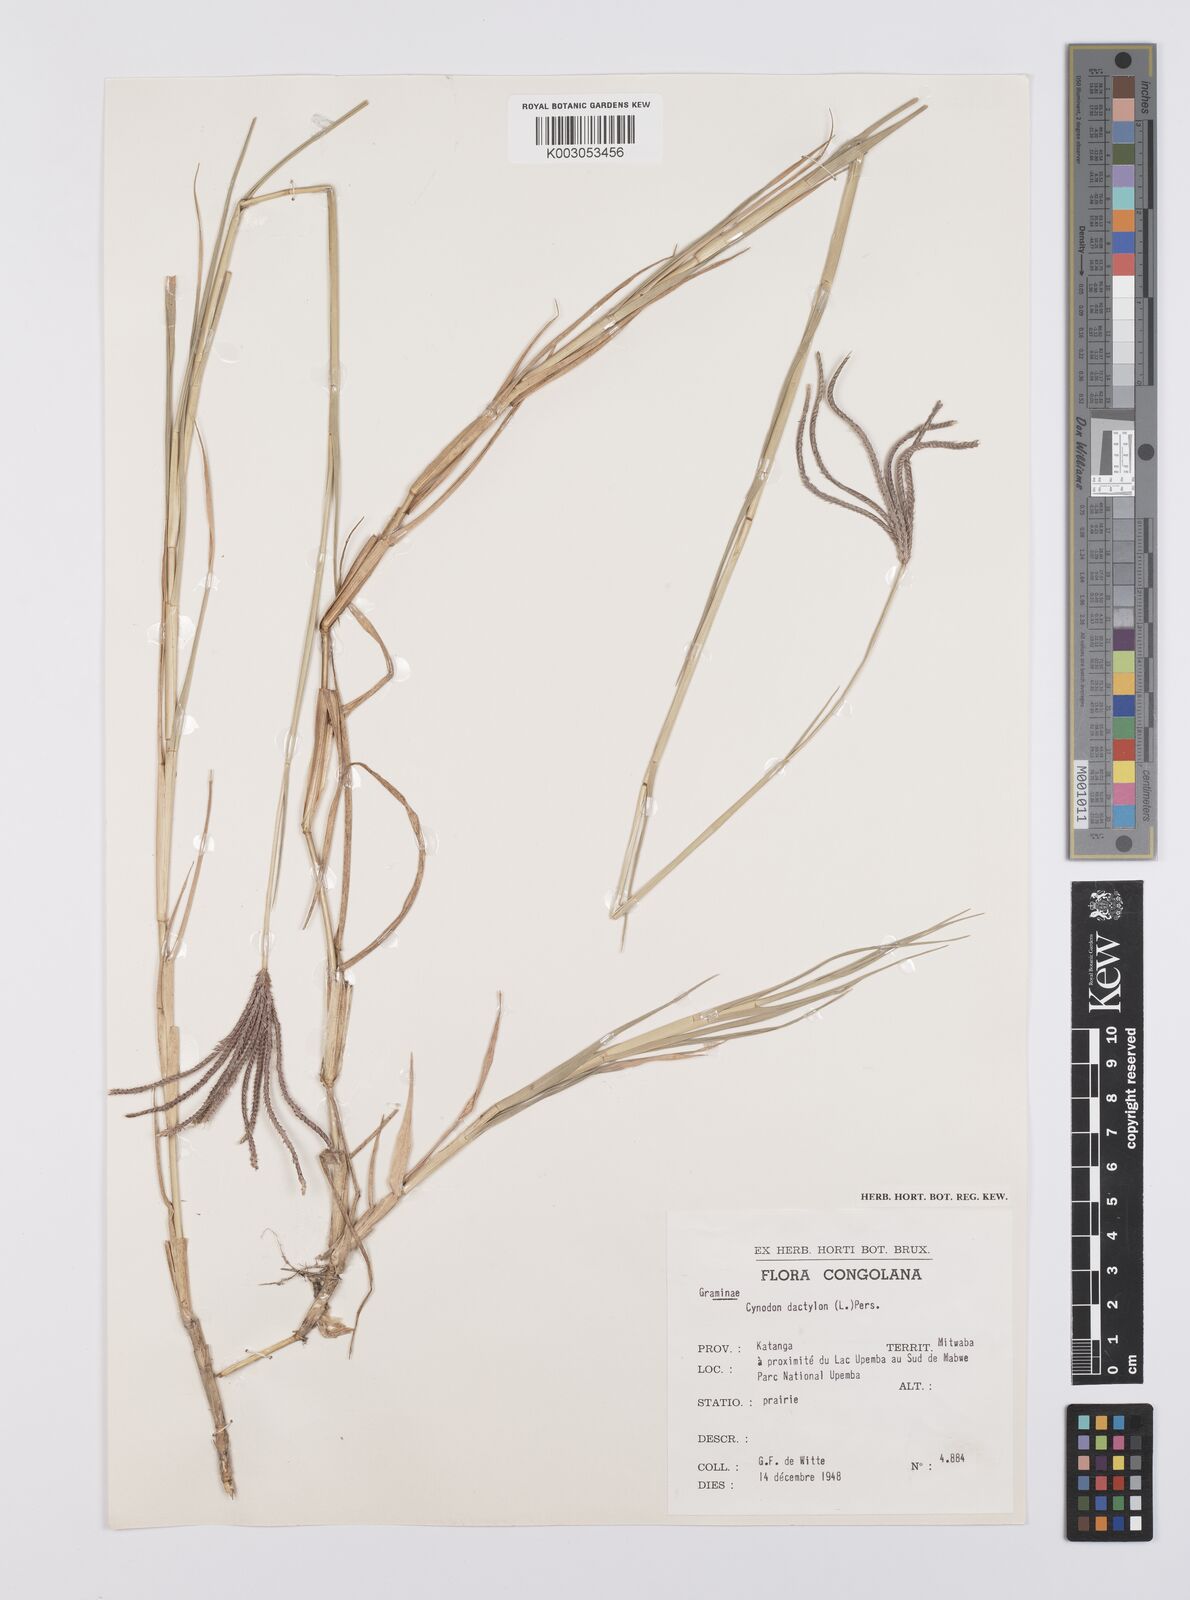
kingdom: Plantae
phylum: Tracheophyta
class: Liliopsida
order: Poales
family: Poaceae
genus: Cynodon
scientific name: Cynodon aethiopicus
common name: Ethiopian dogstooth grass
